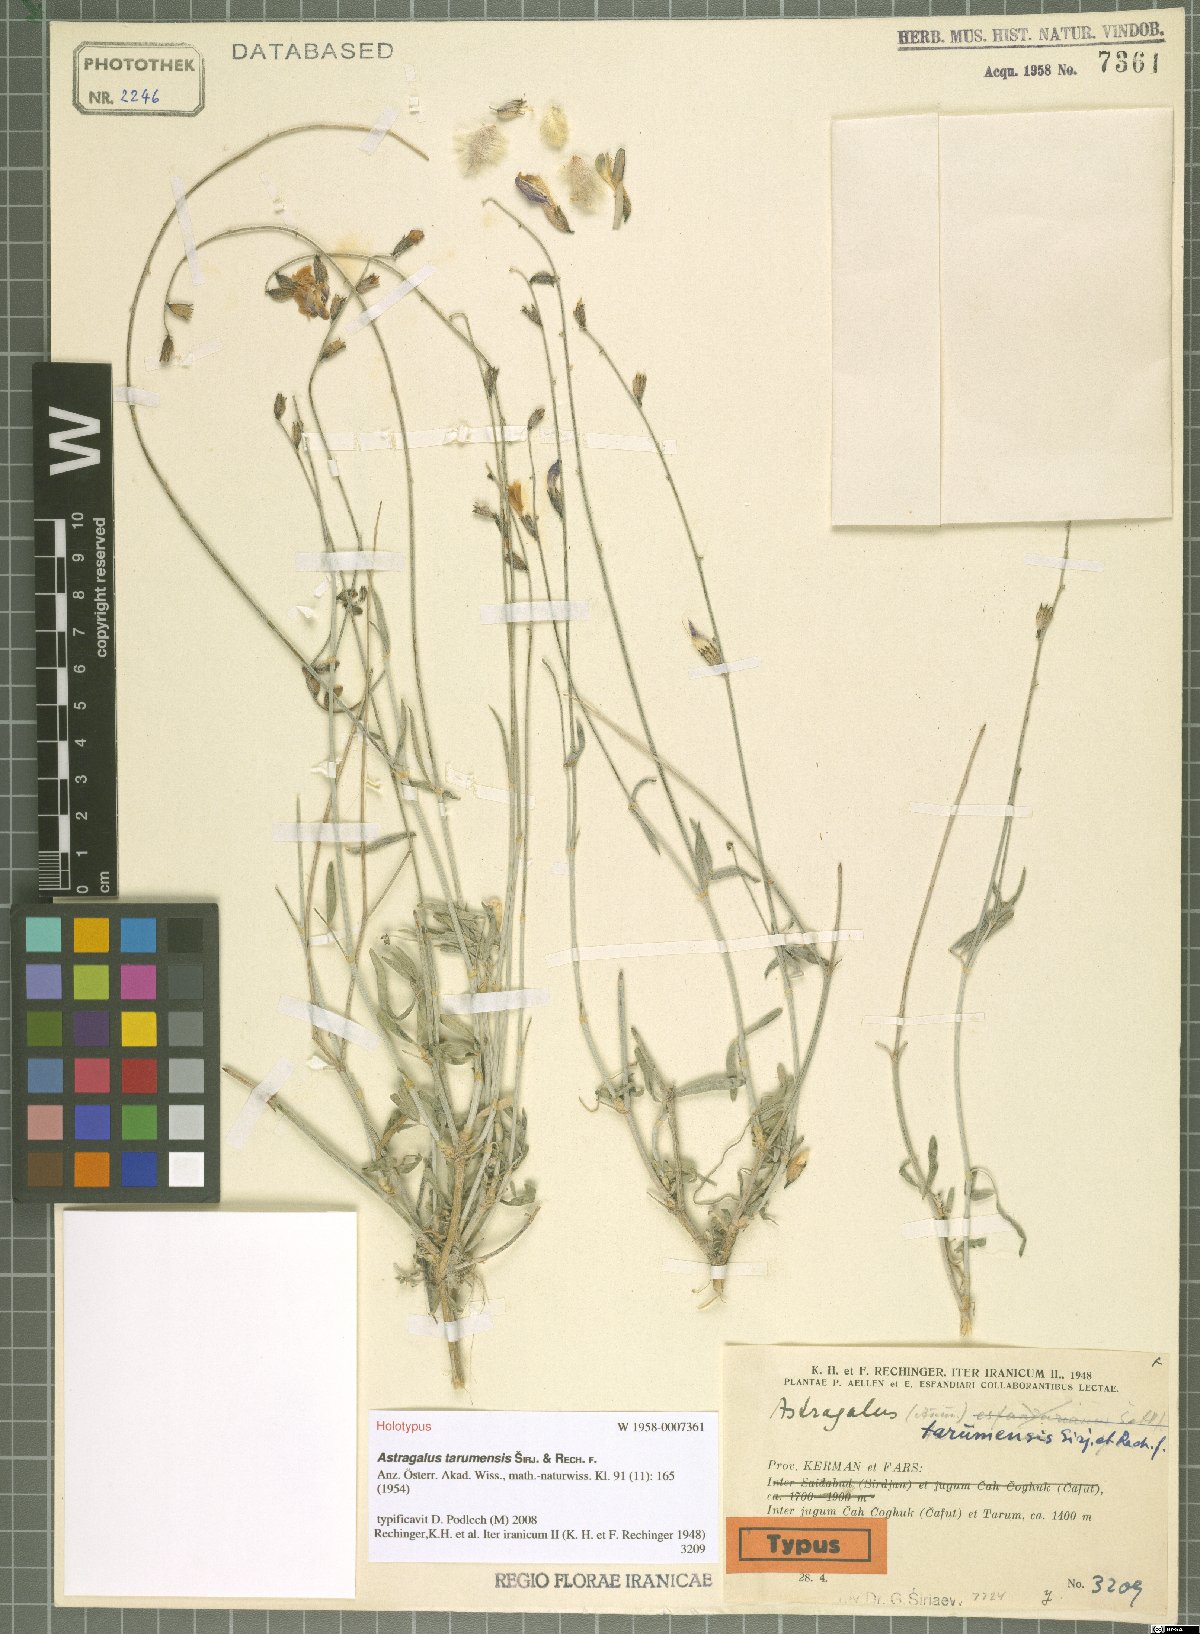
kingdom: Plantae
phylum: Tracheophyta
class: Magnoliopsida
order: Fabales
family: Fabaceae
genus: Astragalus
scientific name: Astragalus tarumensis
